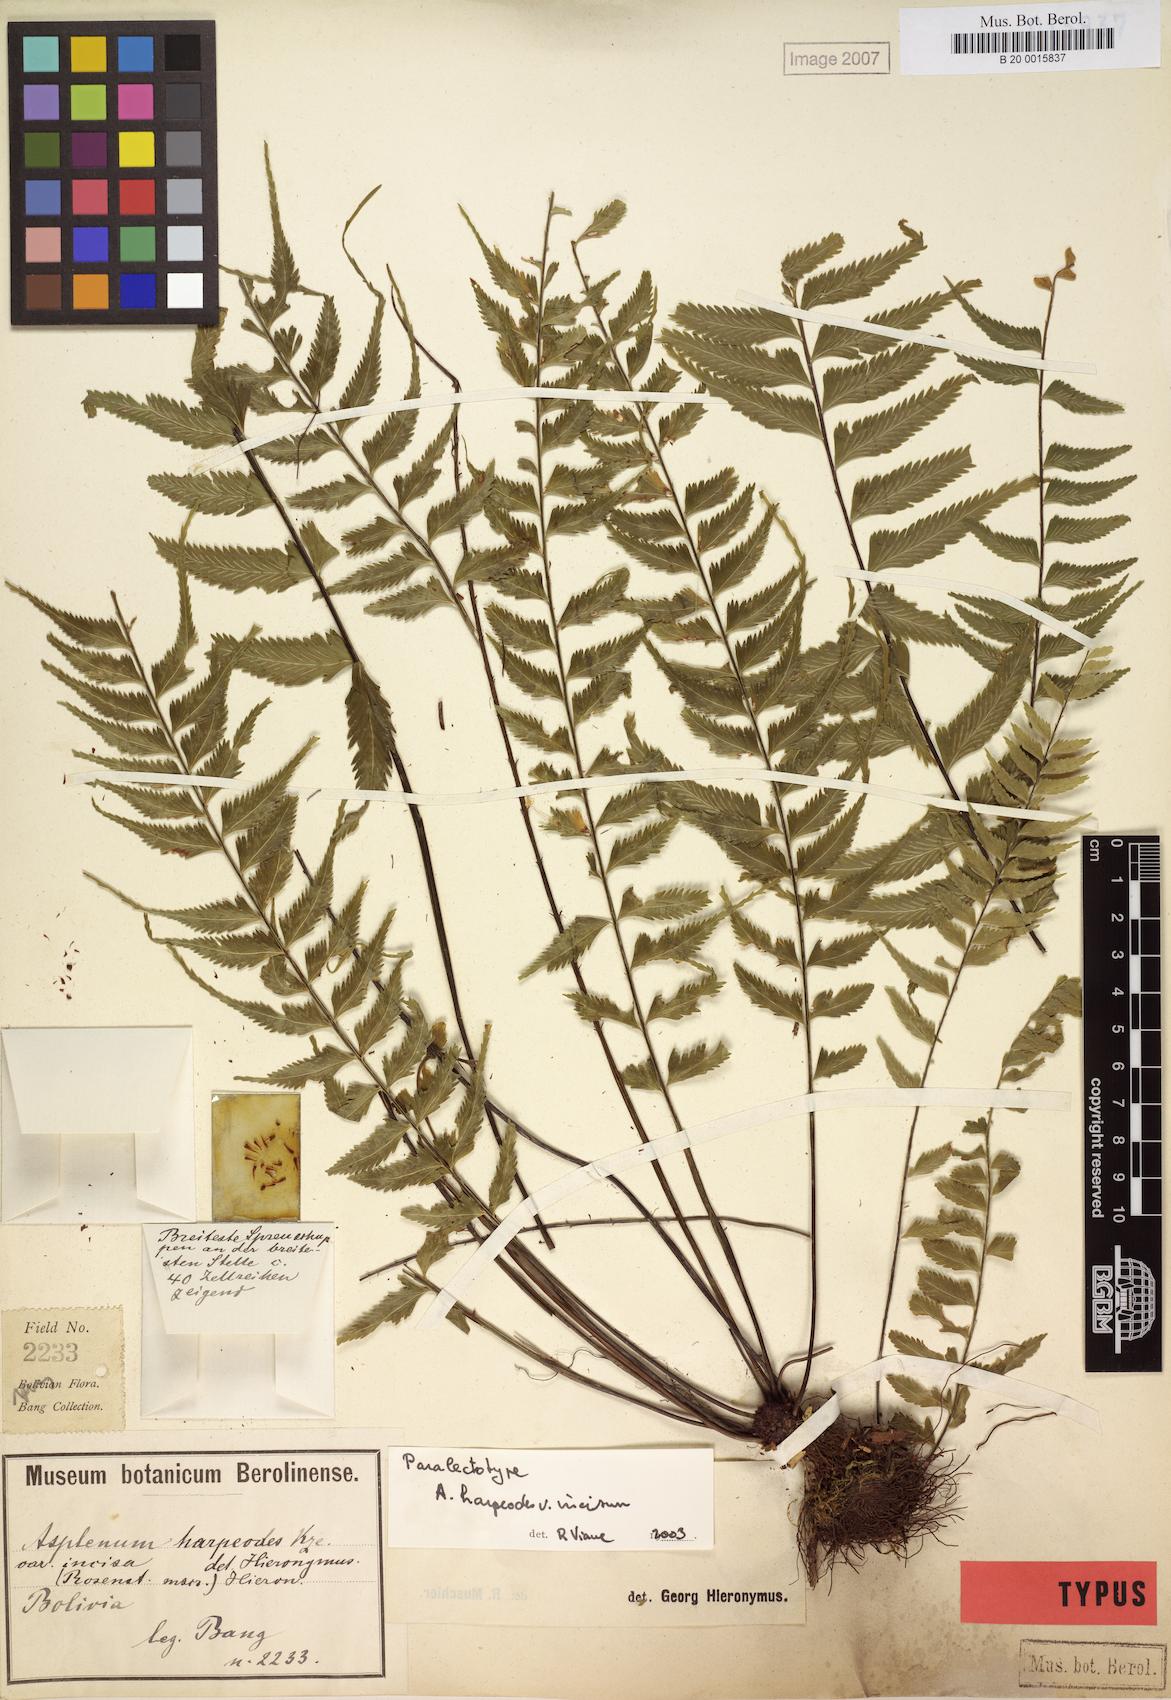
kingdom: Plantae
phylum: Tracheophyta
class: Polypodiopsida
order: Polypodiales
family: Aspleniaceae
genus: Asplenium
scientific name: Asplenium harpeodes
